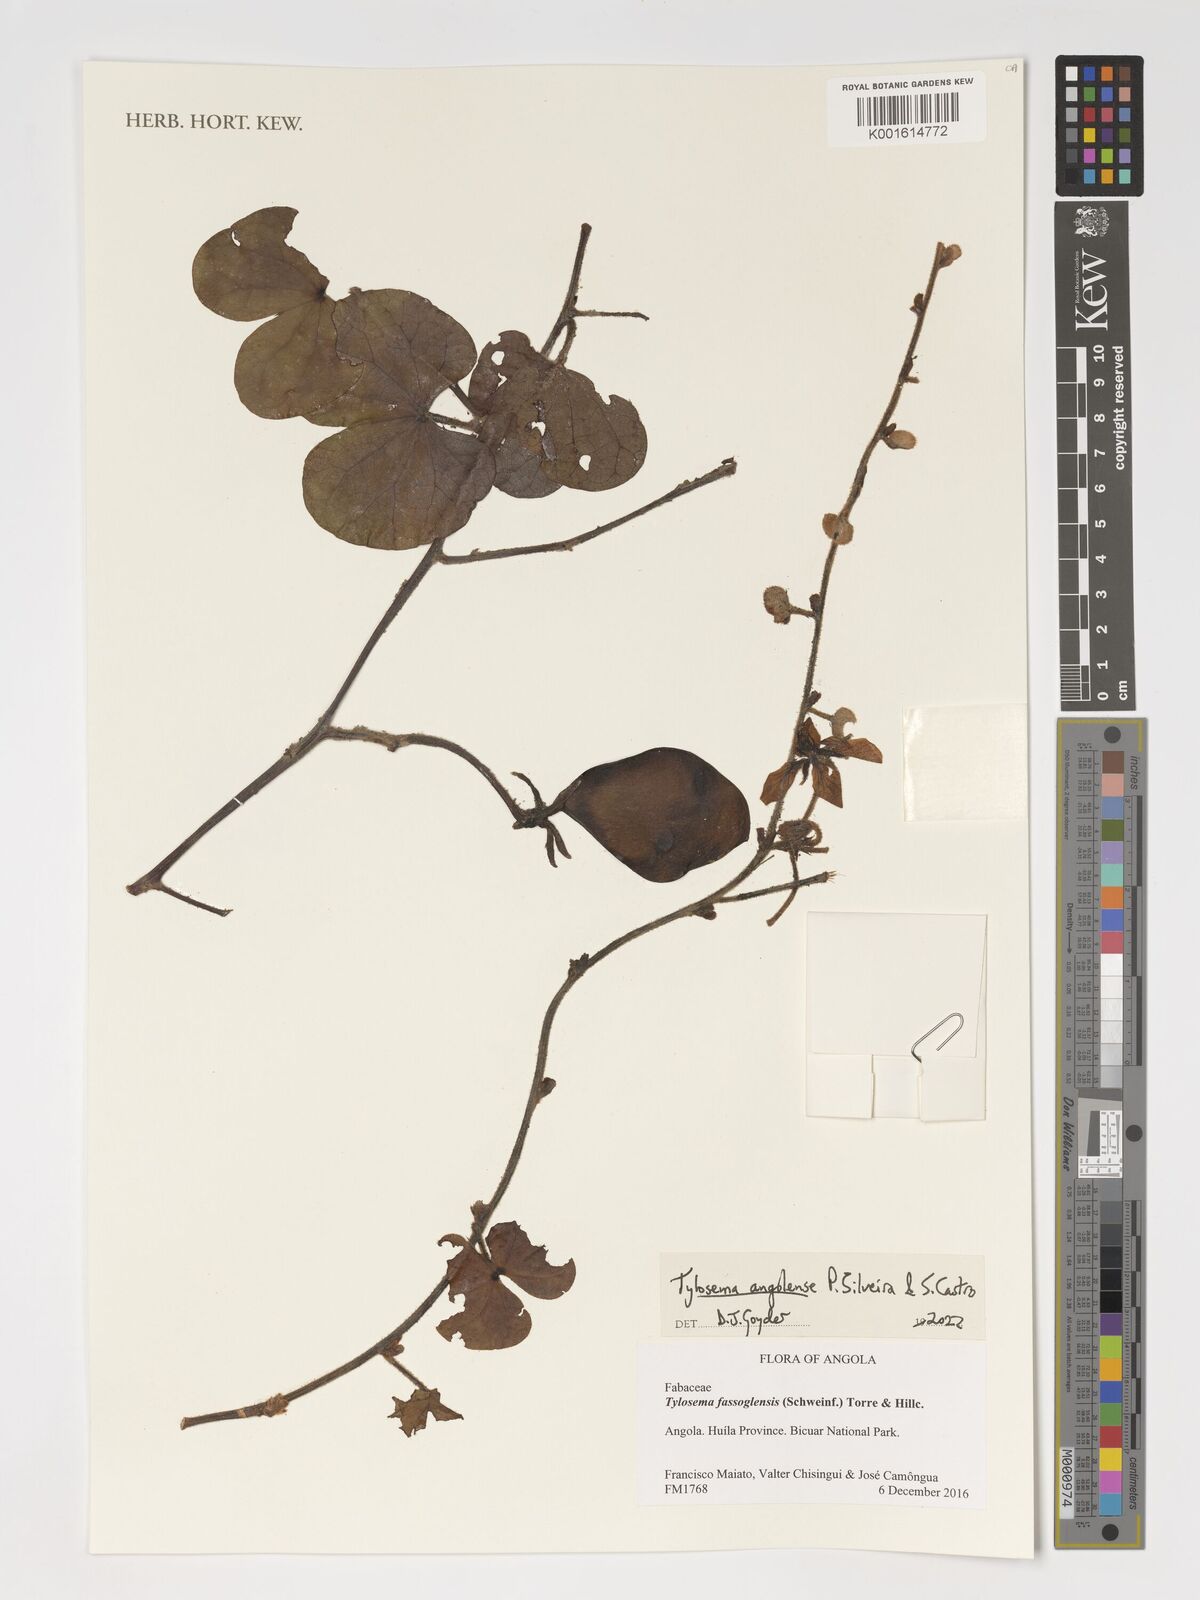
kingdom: Plantae
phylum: Tracheophyta
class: Magnoliopsida
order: Fabales
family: Fabaceae
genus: Tylosema
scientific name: Tylosema angolense
